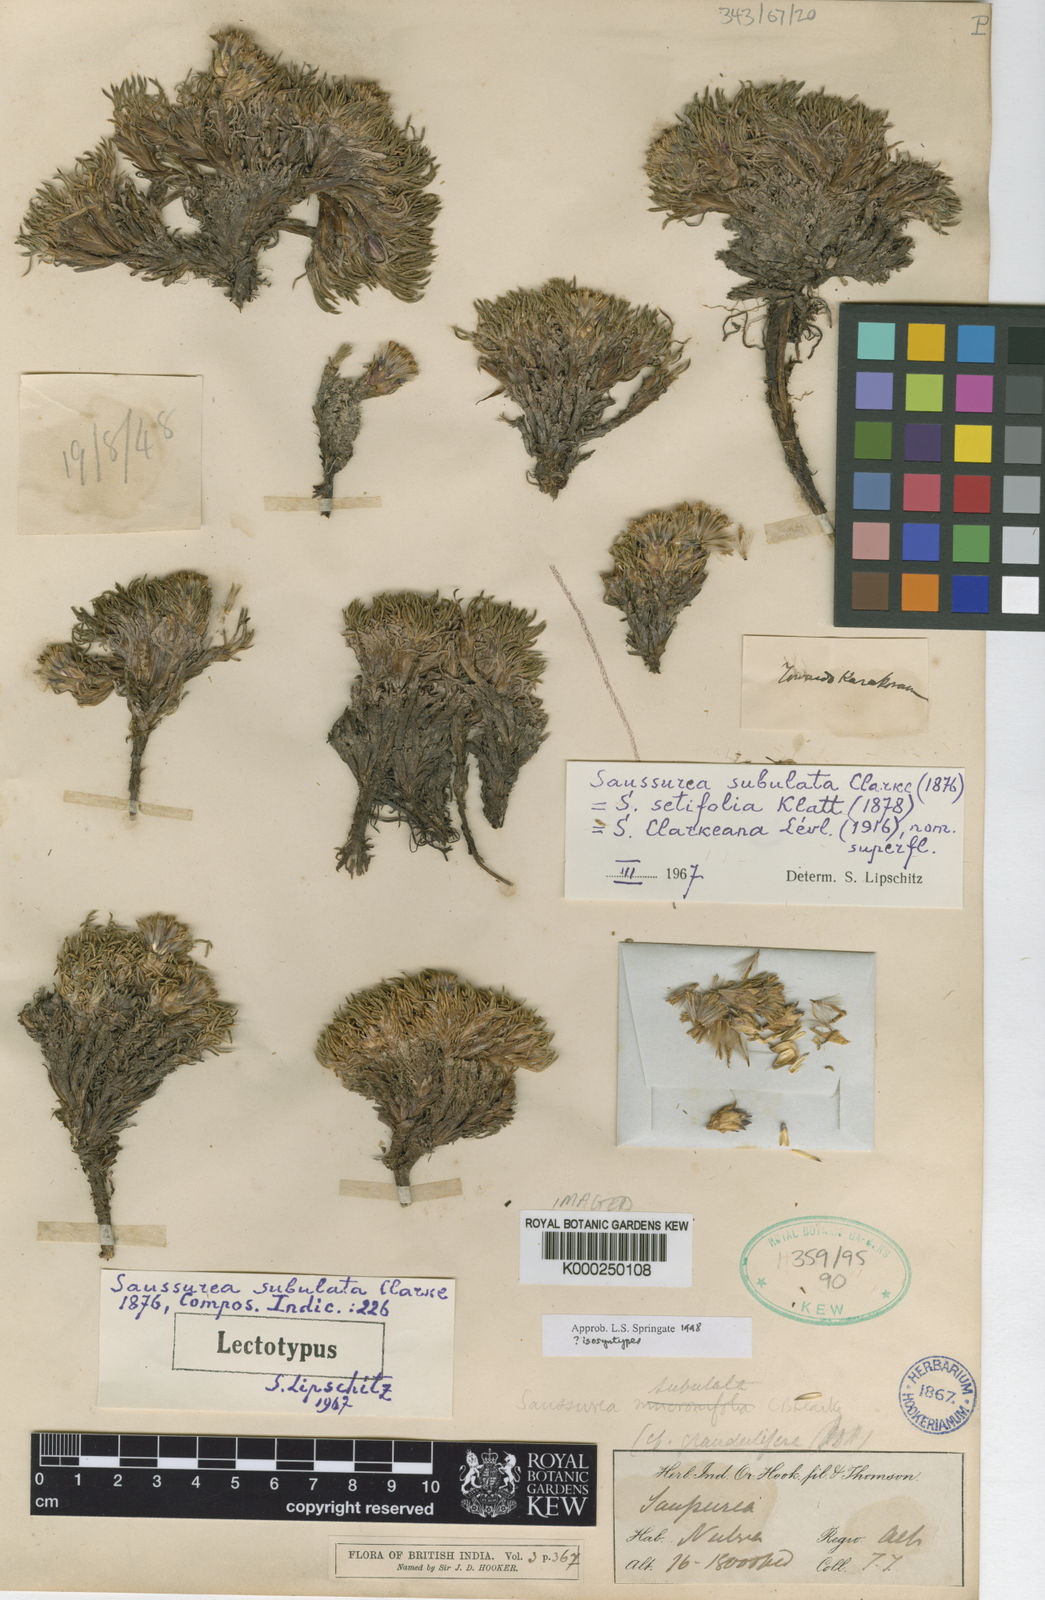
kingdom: Plantae
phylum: Tracheophyta
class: Magnoliopsida
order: Asterales
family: Asteraceae
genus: Saussurea
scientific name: Saussurea subulata
